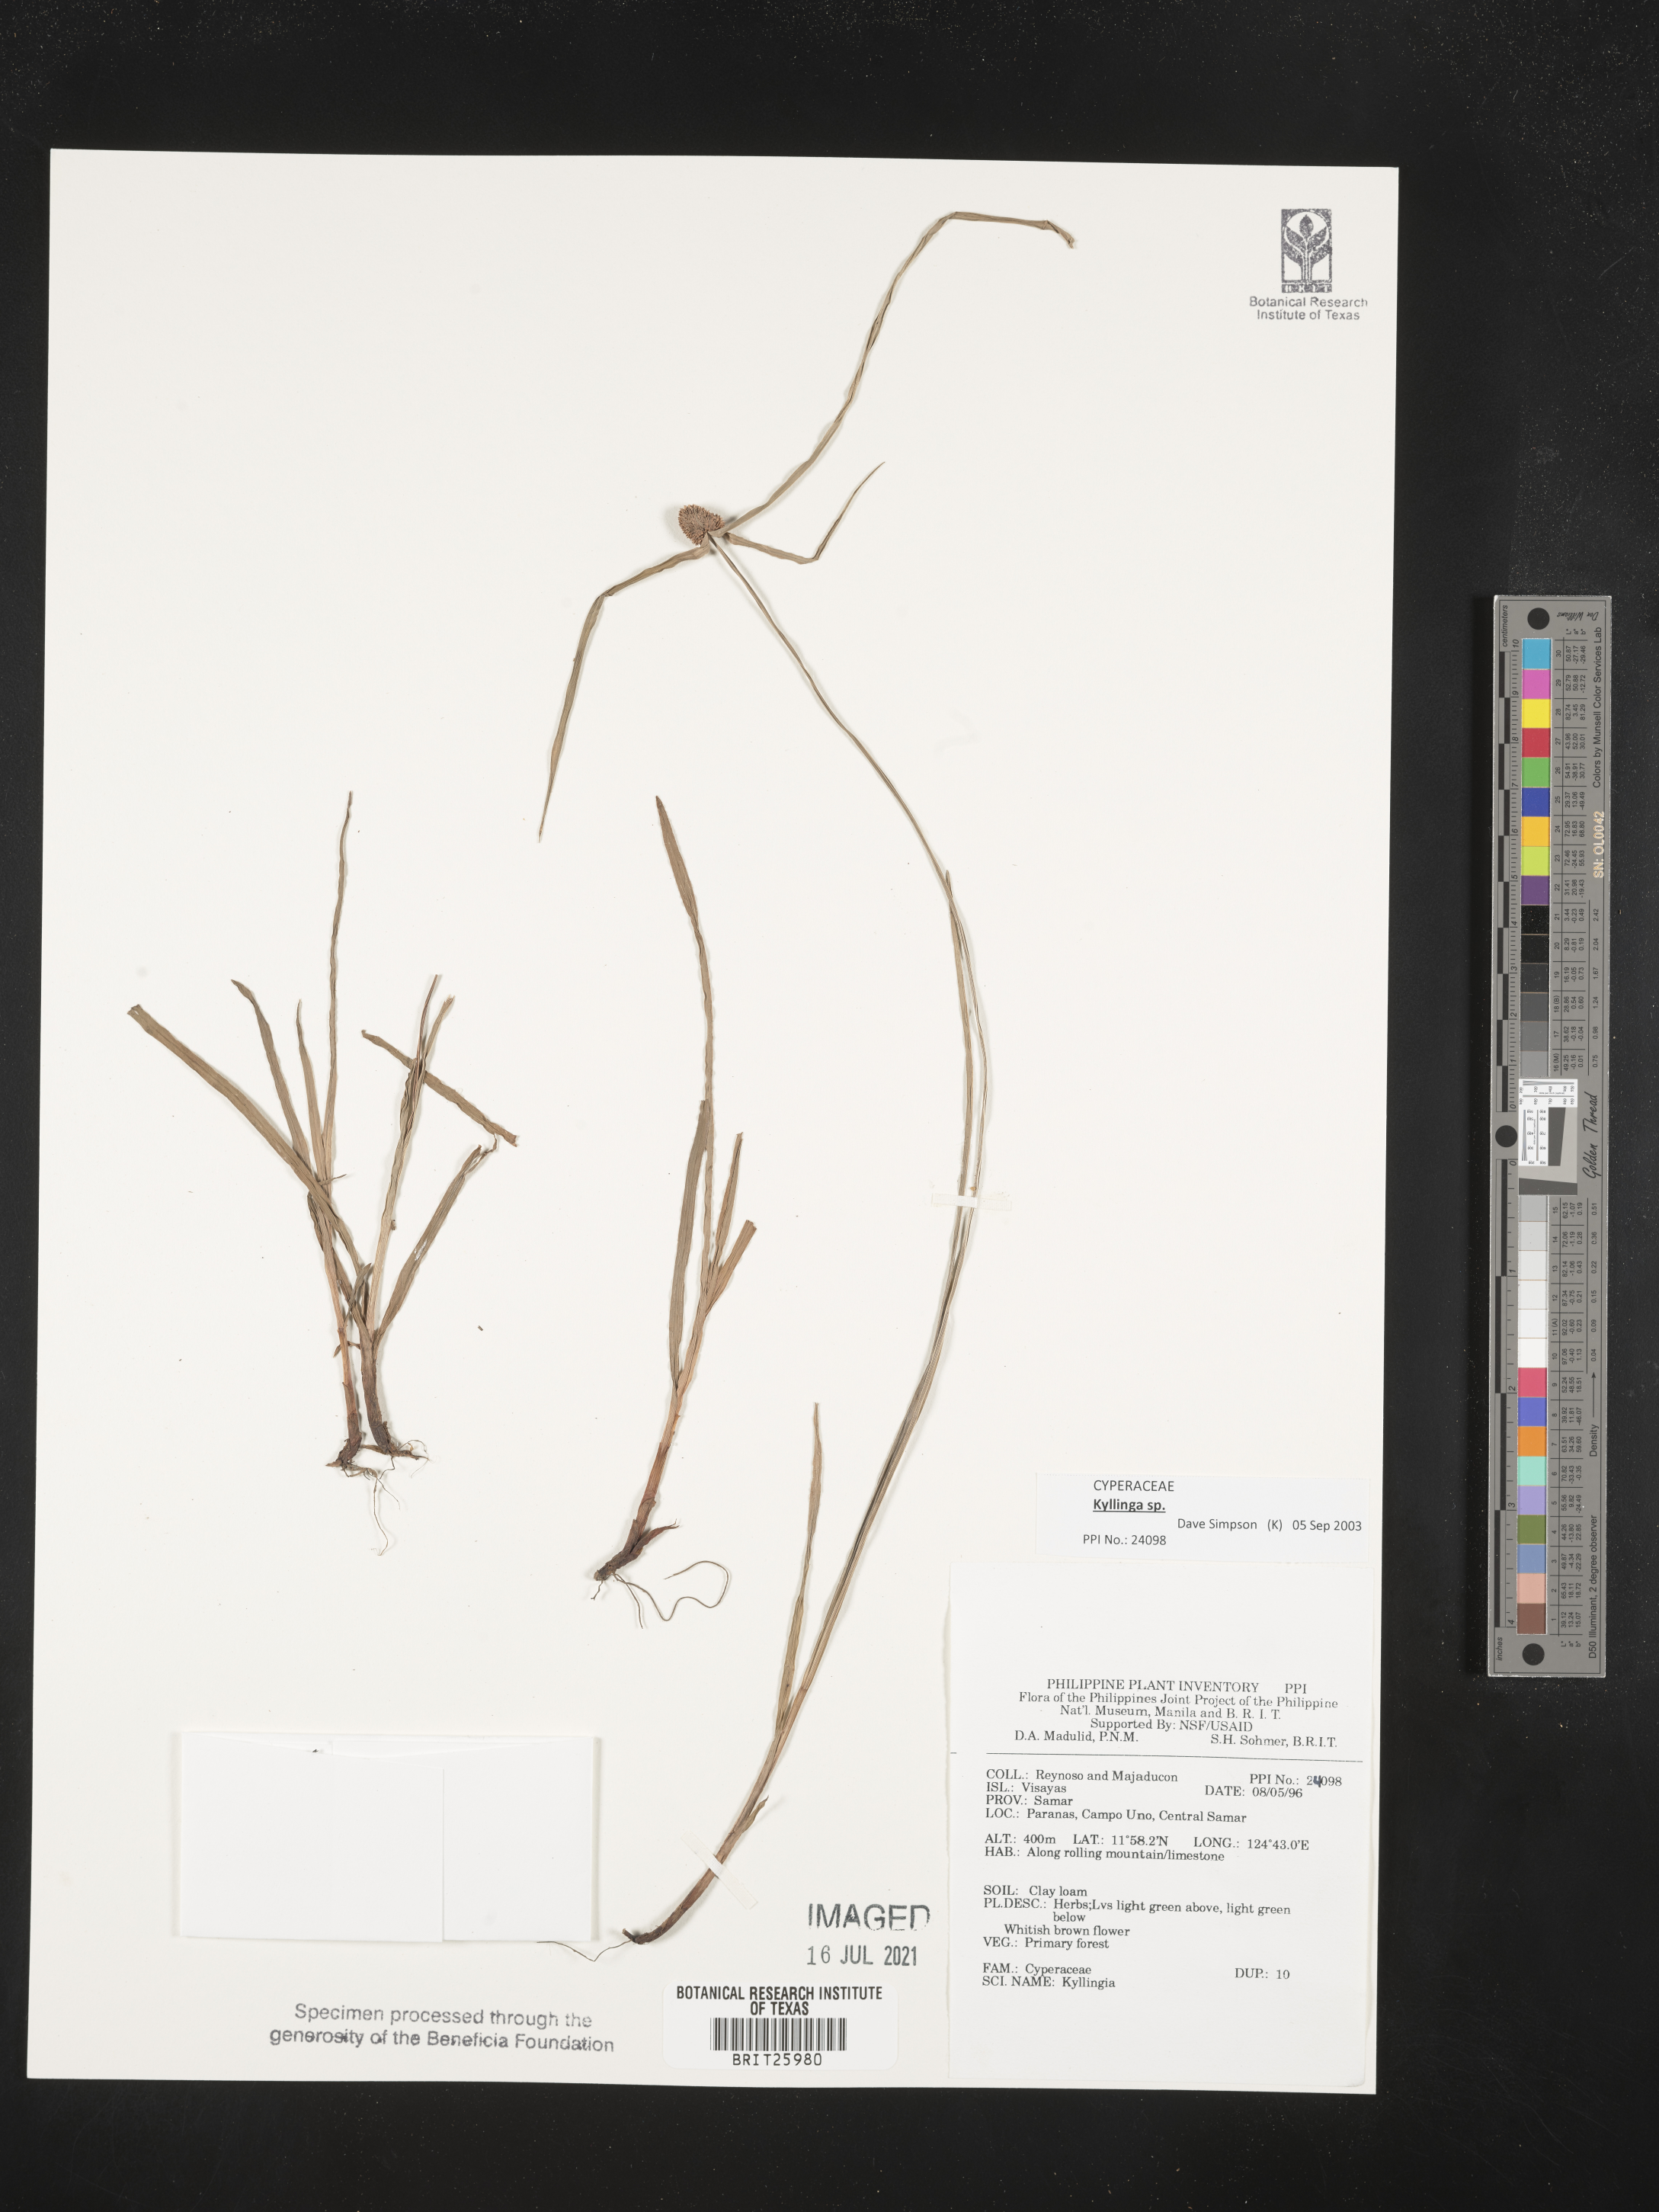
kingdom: Plantae
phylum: Tracheophyta
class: Liliopsida
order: Poales
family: Cyperaceae
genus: Cyperus
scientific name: Cyperus
